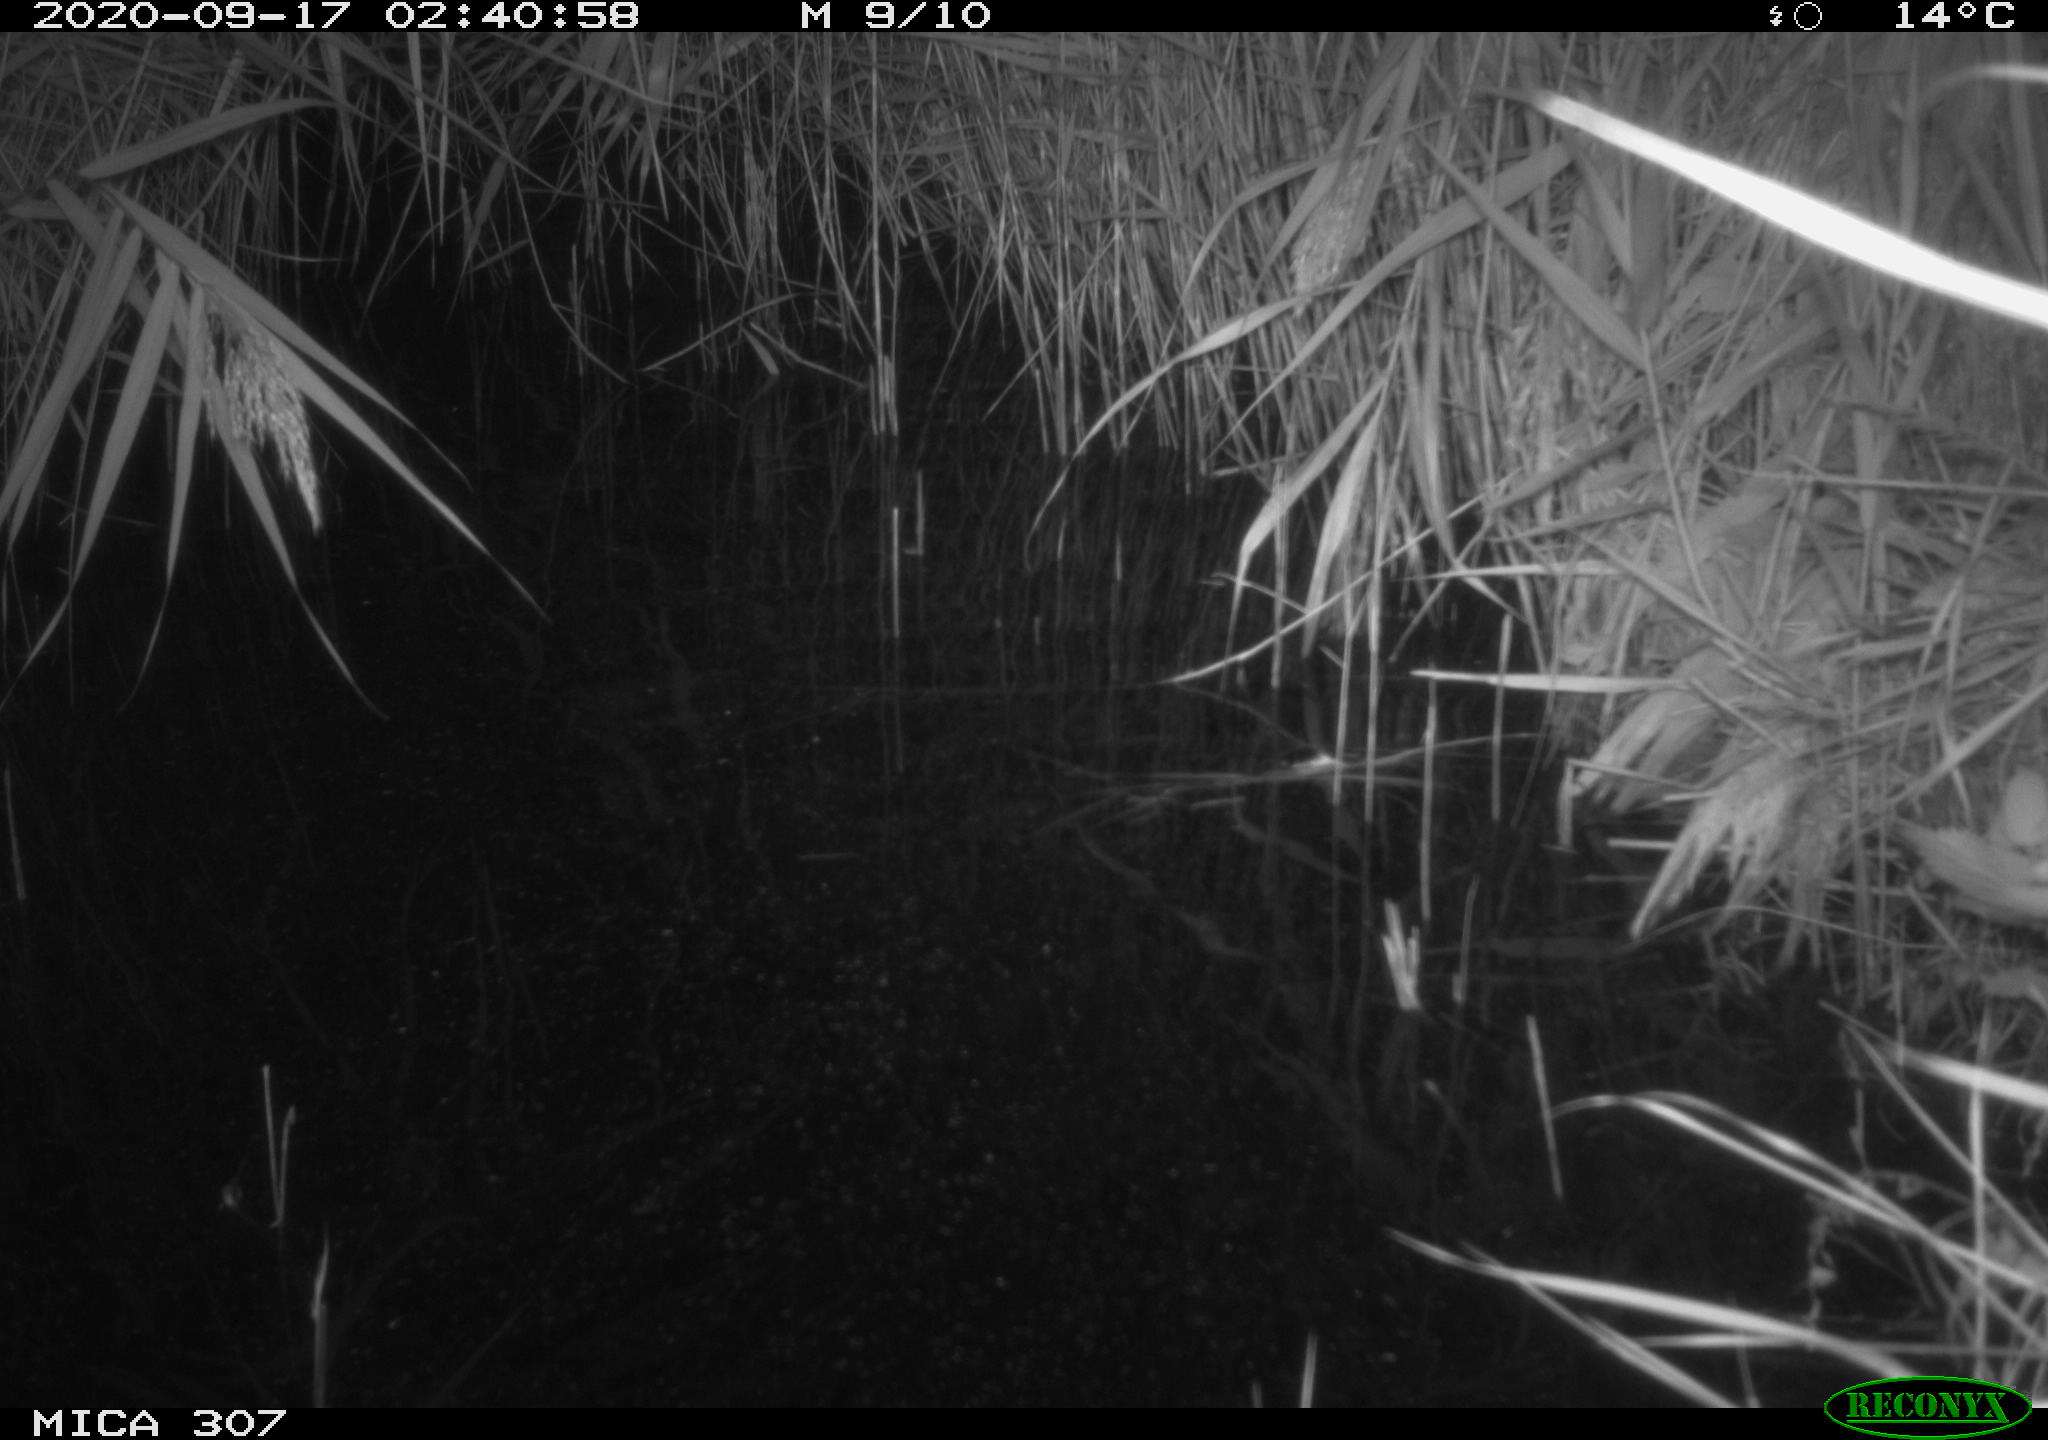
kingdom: Animalia
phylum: Chordata
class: Mammalia
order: Rodentia
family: Muridae
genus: Rattus
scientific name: Rattus norvegicus
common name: Brown rat
